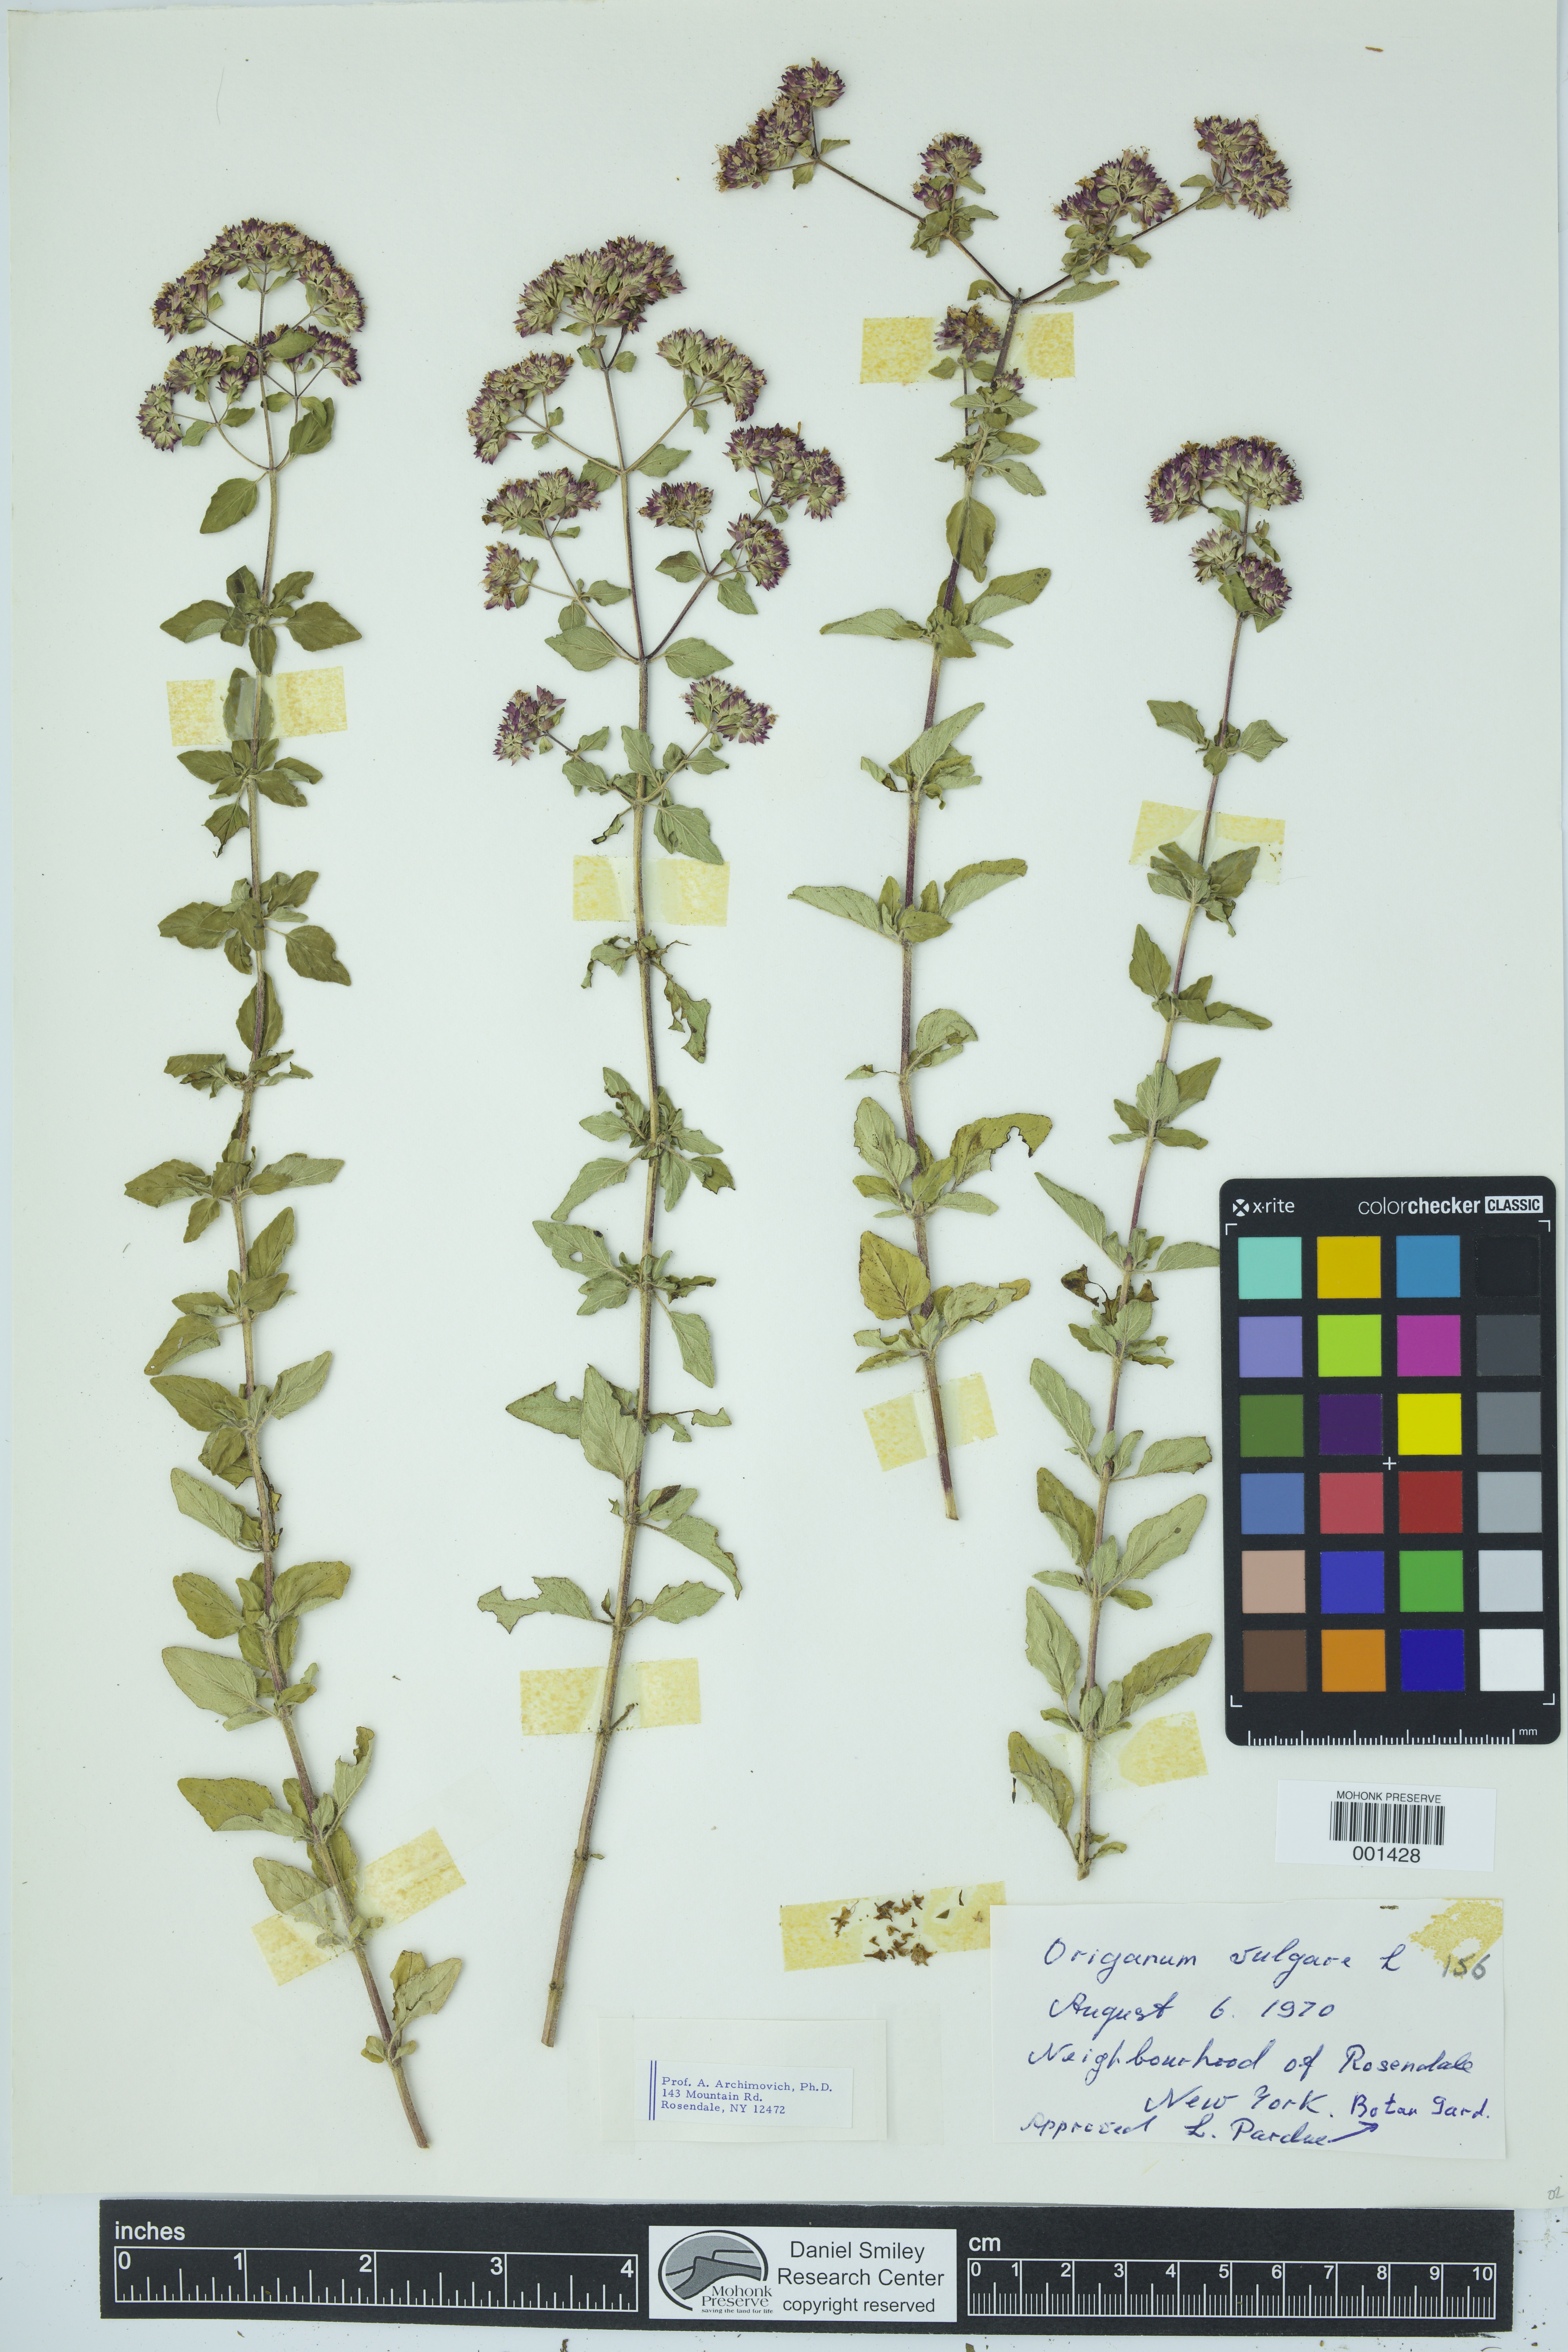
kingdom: Plantae
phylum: Tracheophyta
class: Magnoliopsida
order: Lamiales
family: Lamiaceae
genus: Origanum
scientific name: Origanum vulgare
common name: Wild marjoram
